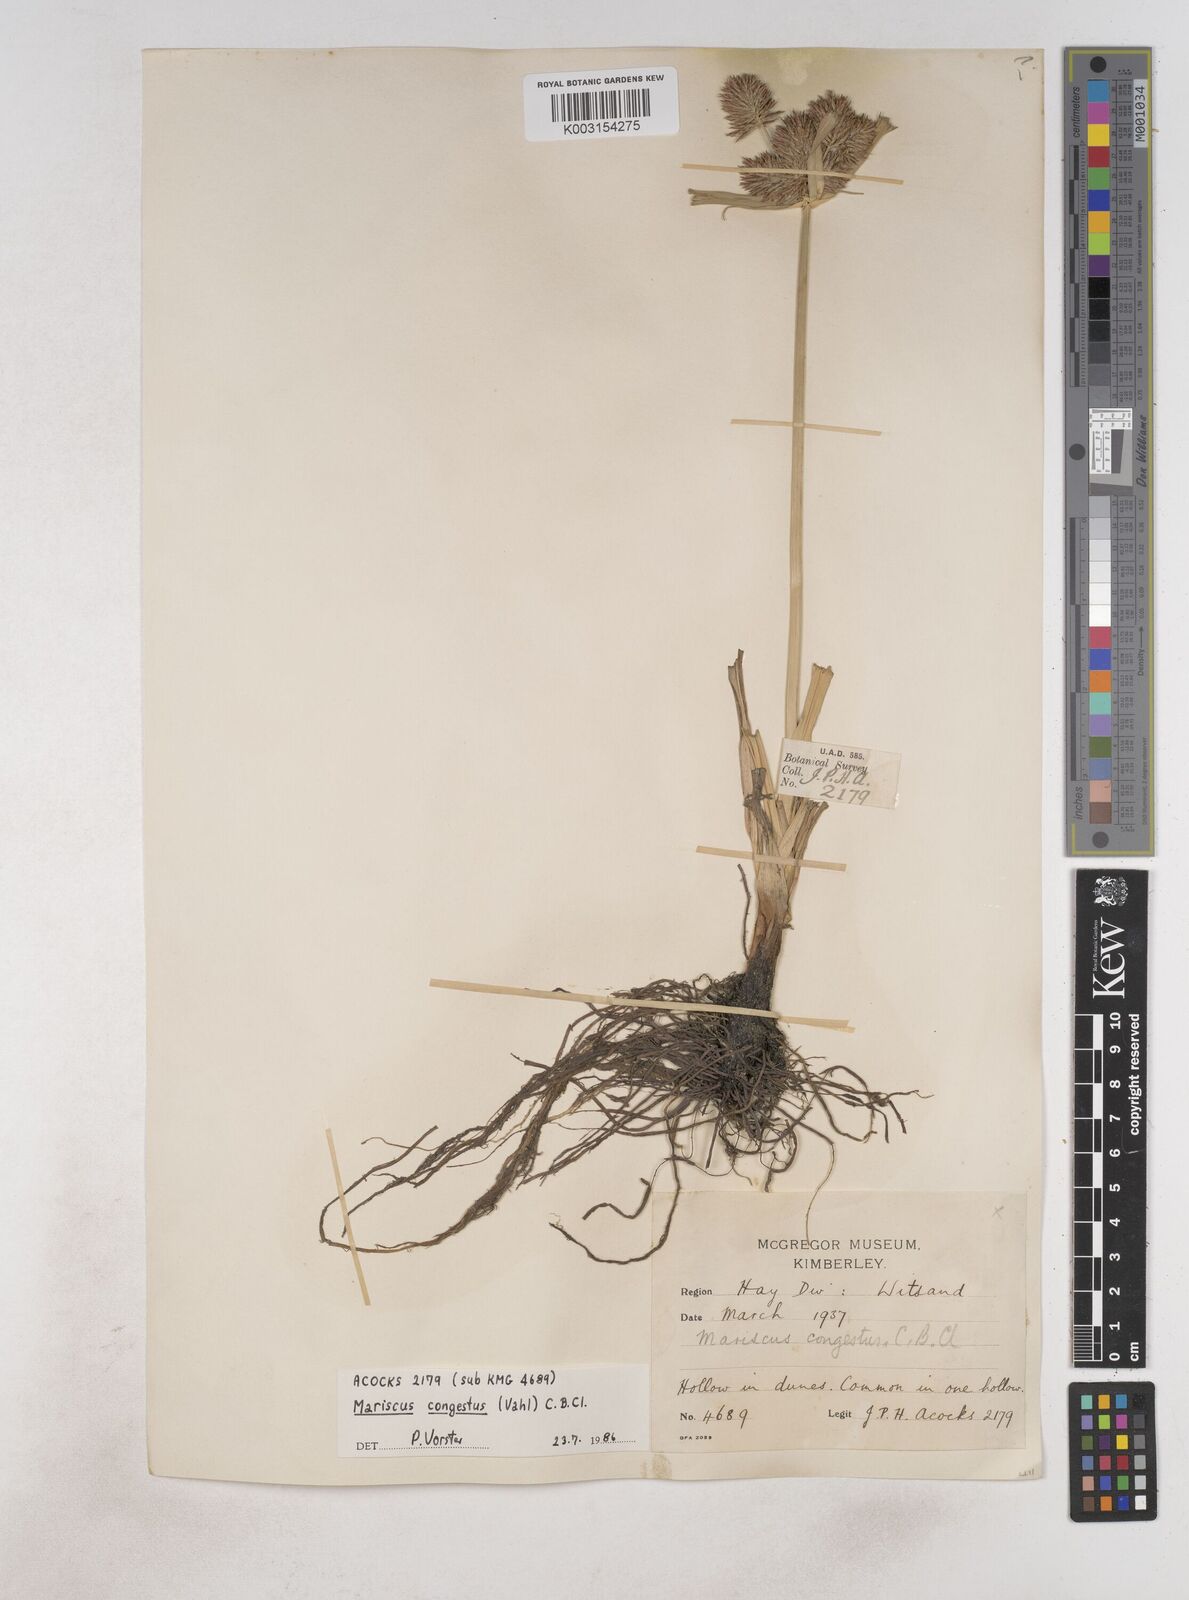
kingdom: Plantae
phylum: Tracheophyta
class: Liliopsida
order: Poales
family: Cyperaceae
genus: Cyperus
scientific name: Cyperus congestus
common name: Dense flat sedge
